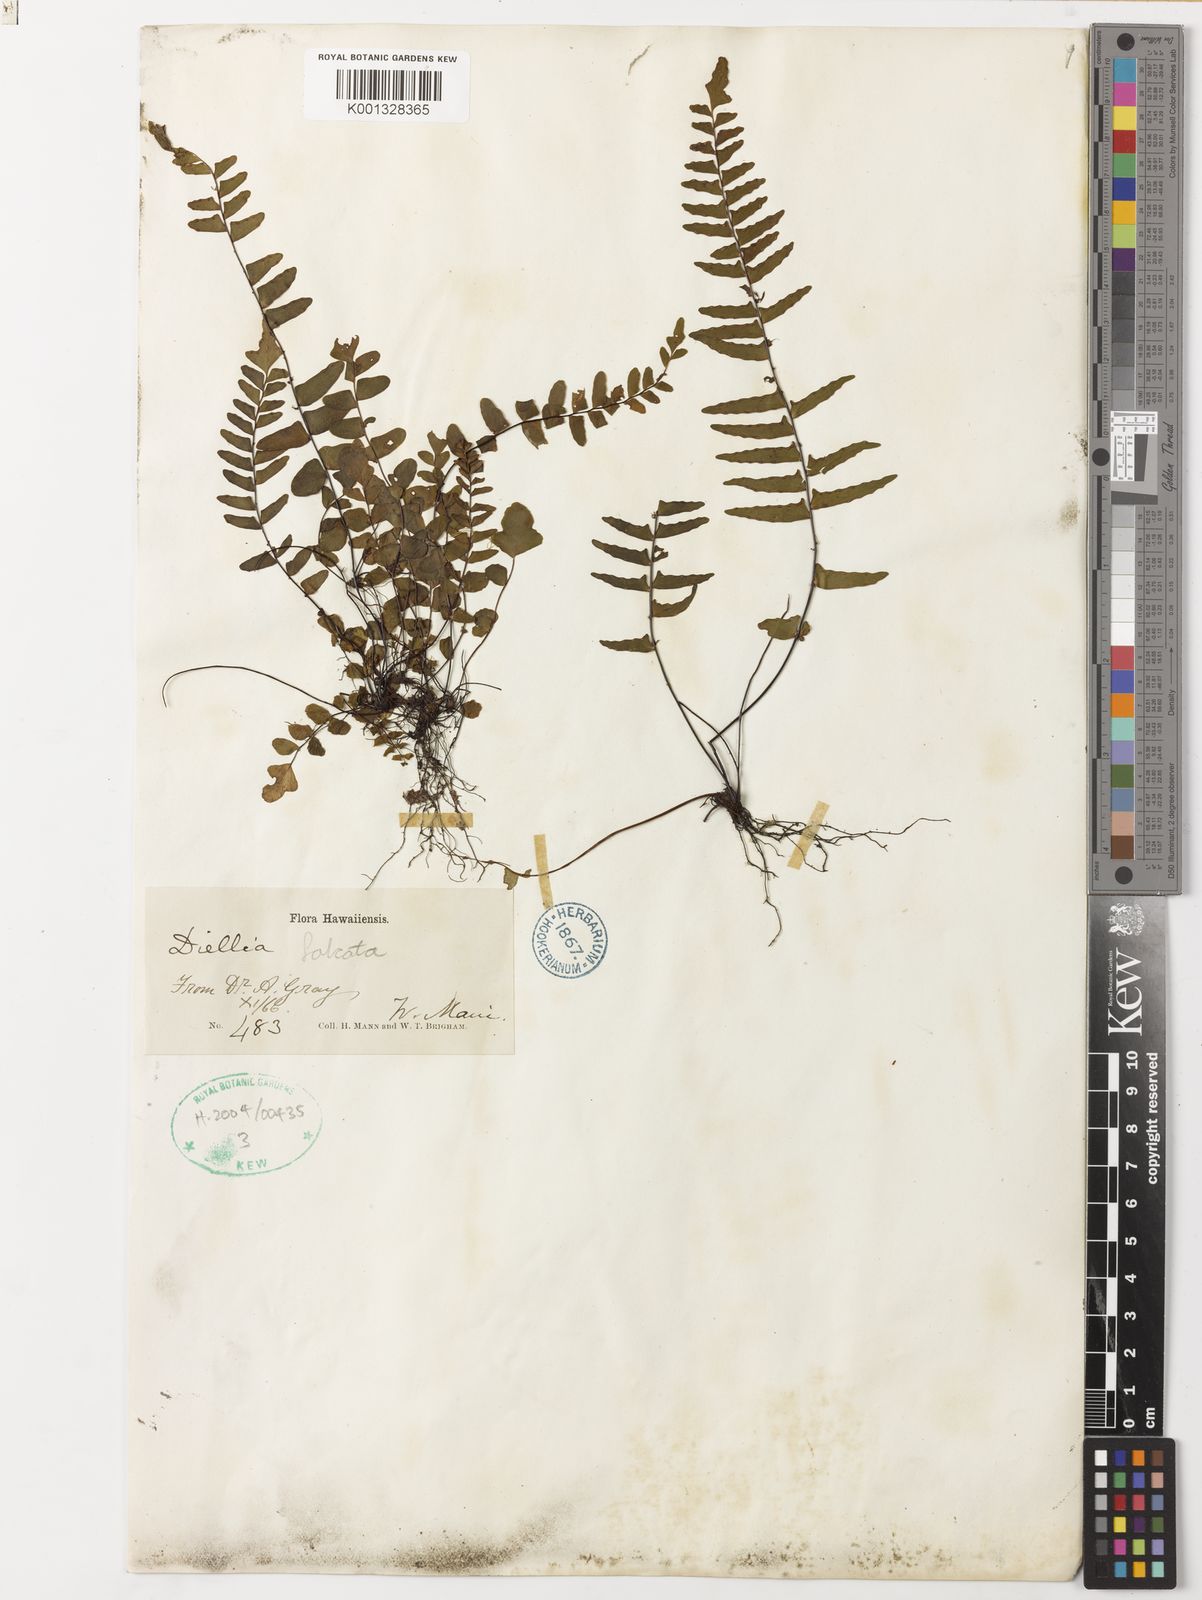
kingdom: Plantae
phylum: Tracheophyta
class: Polypodiopsida
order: Polypodiales
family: Aspleniaceae
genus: Asplenium
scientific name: Asplenium dielfalcatum
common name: Sickle island spleenwort
